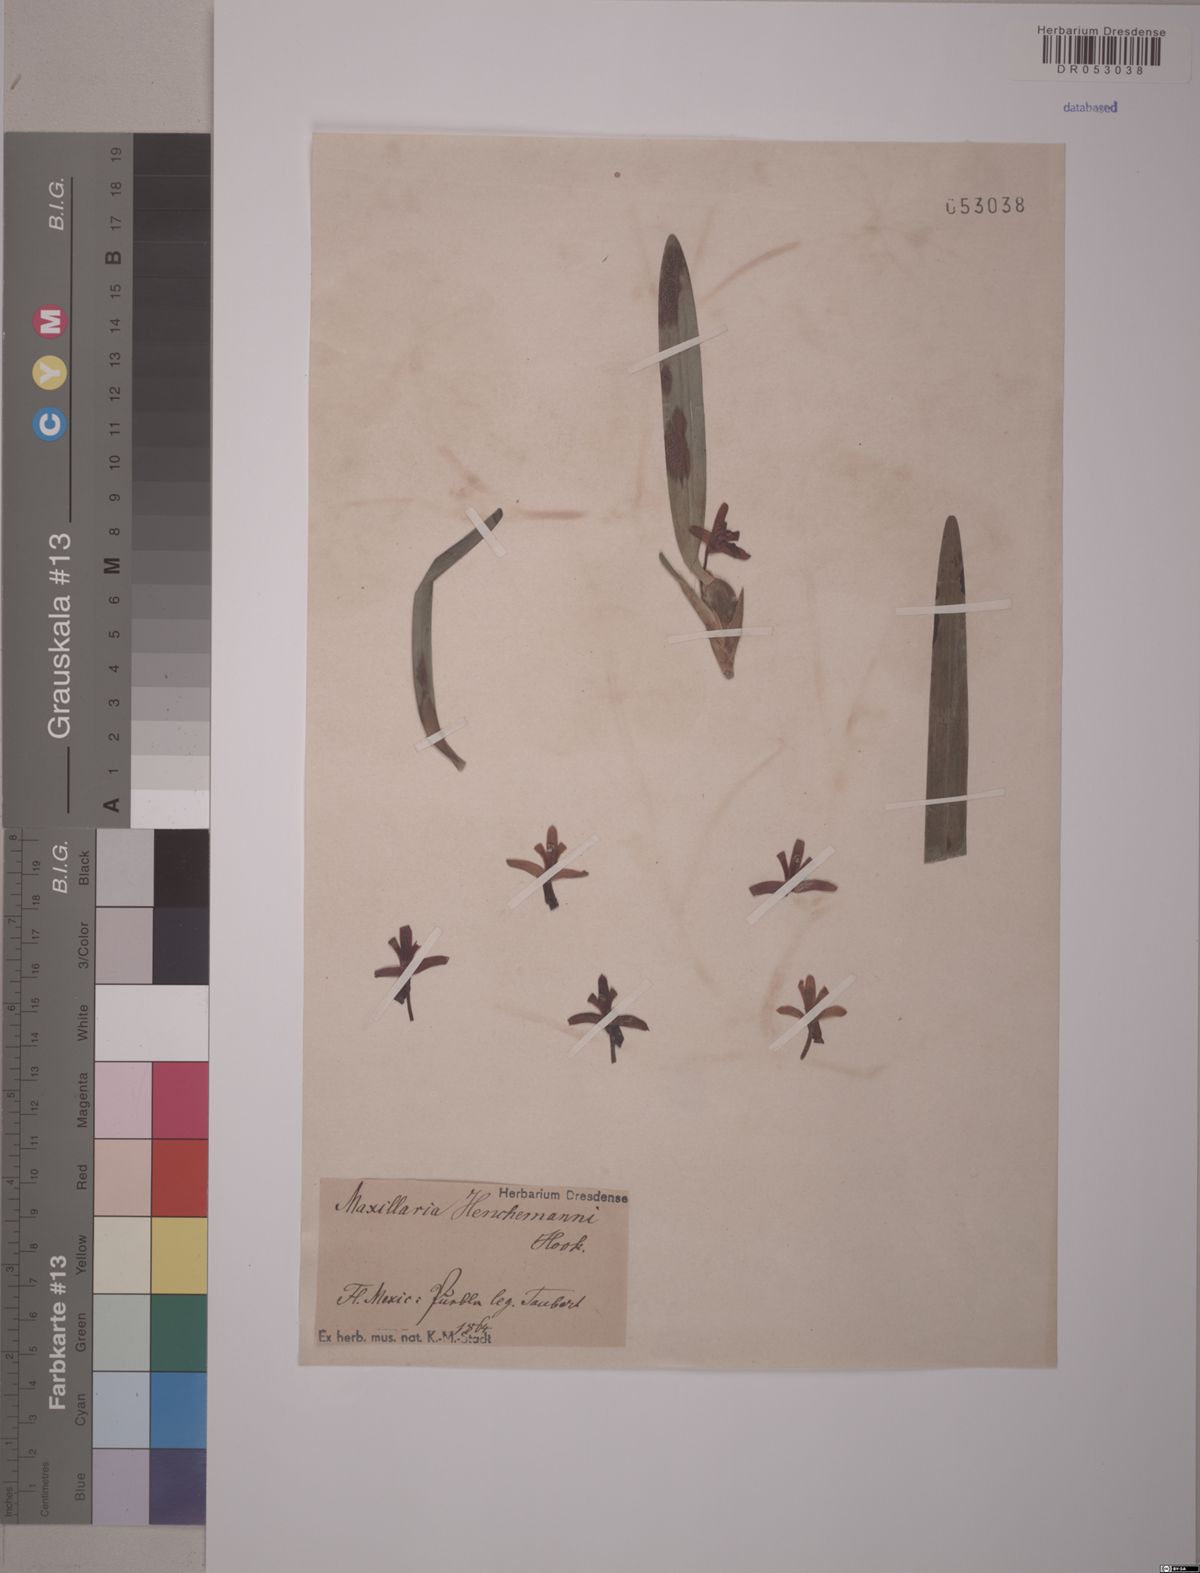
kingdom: Plantae
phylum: Tracheophyta
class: Liliopsida
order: Asparagales
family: Orchidaceae
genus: Maxillaria
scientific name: Maxillaria henchmannii
